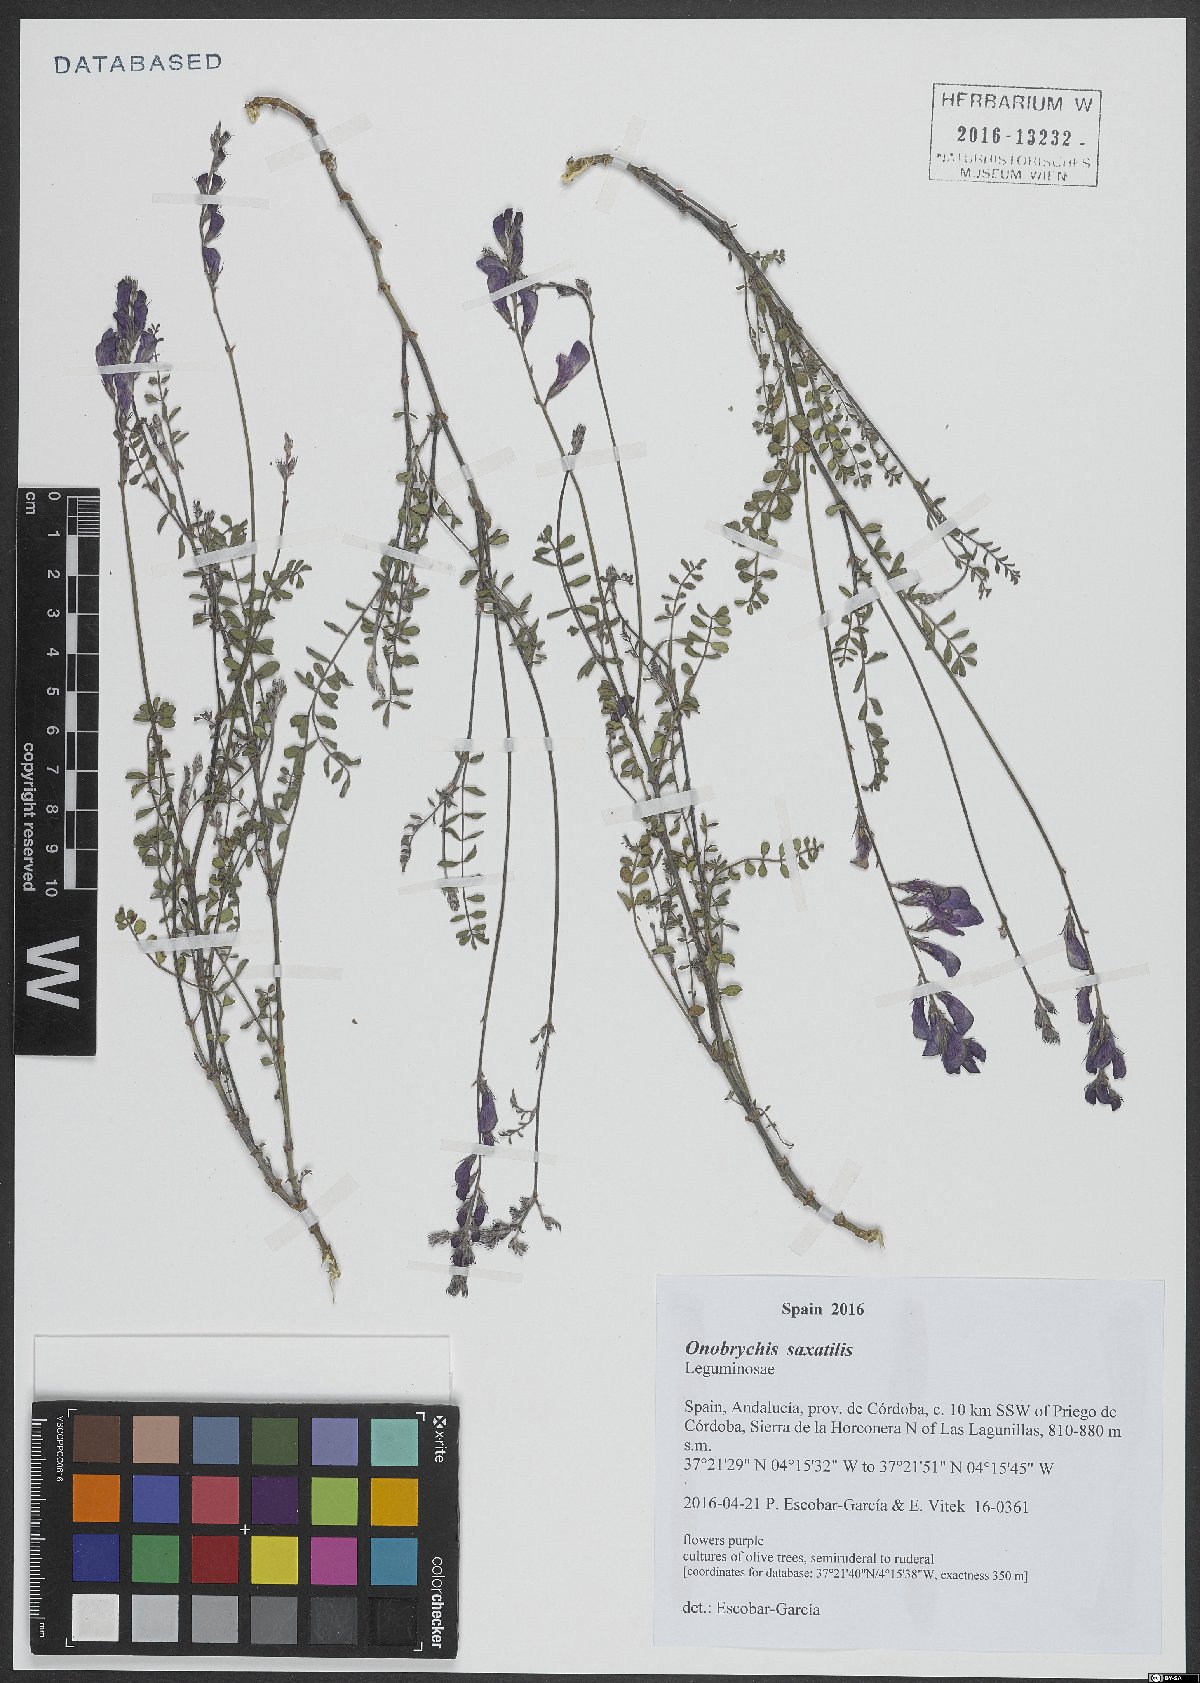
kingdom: Plantae
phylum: Tracheophyta
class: Magnoliopsida
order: Fabales
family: Fabaceae
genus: Onobrychis
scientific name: Onobrychis saxatilis
